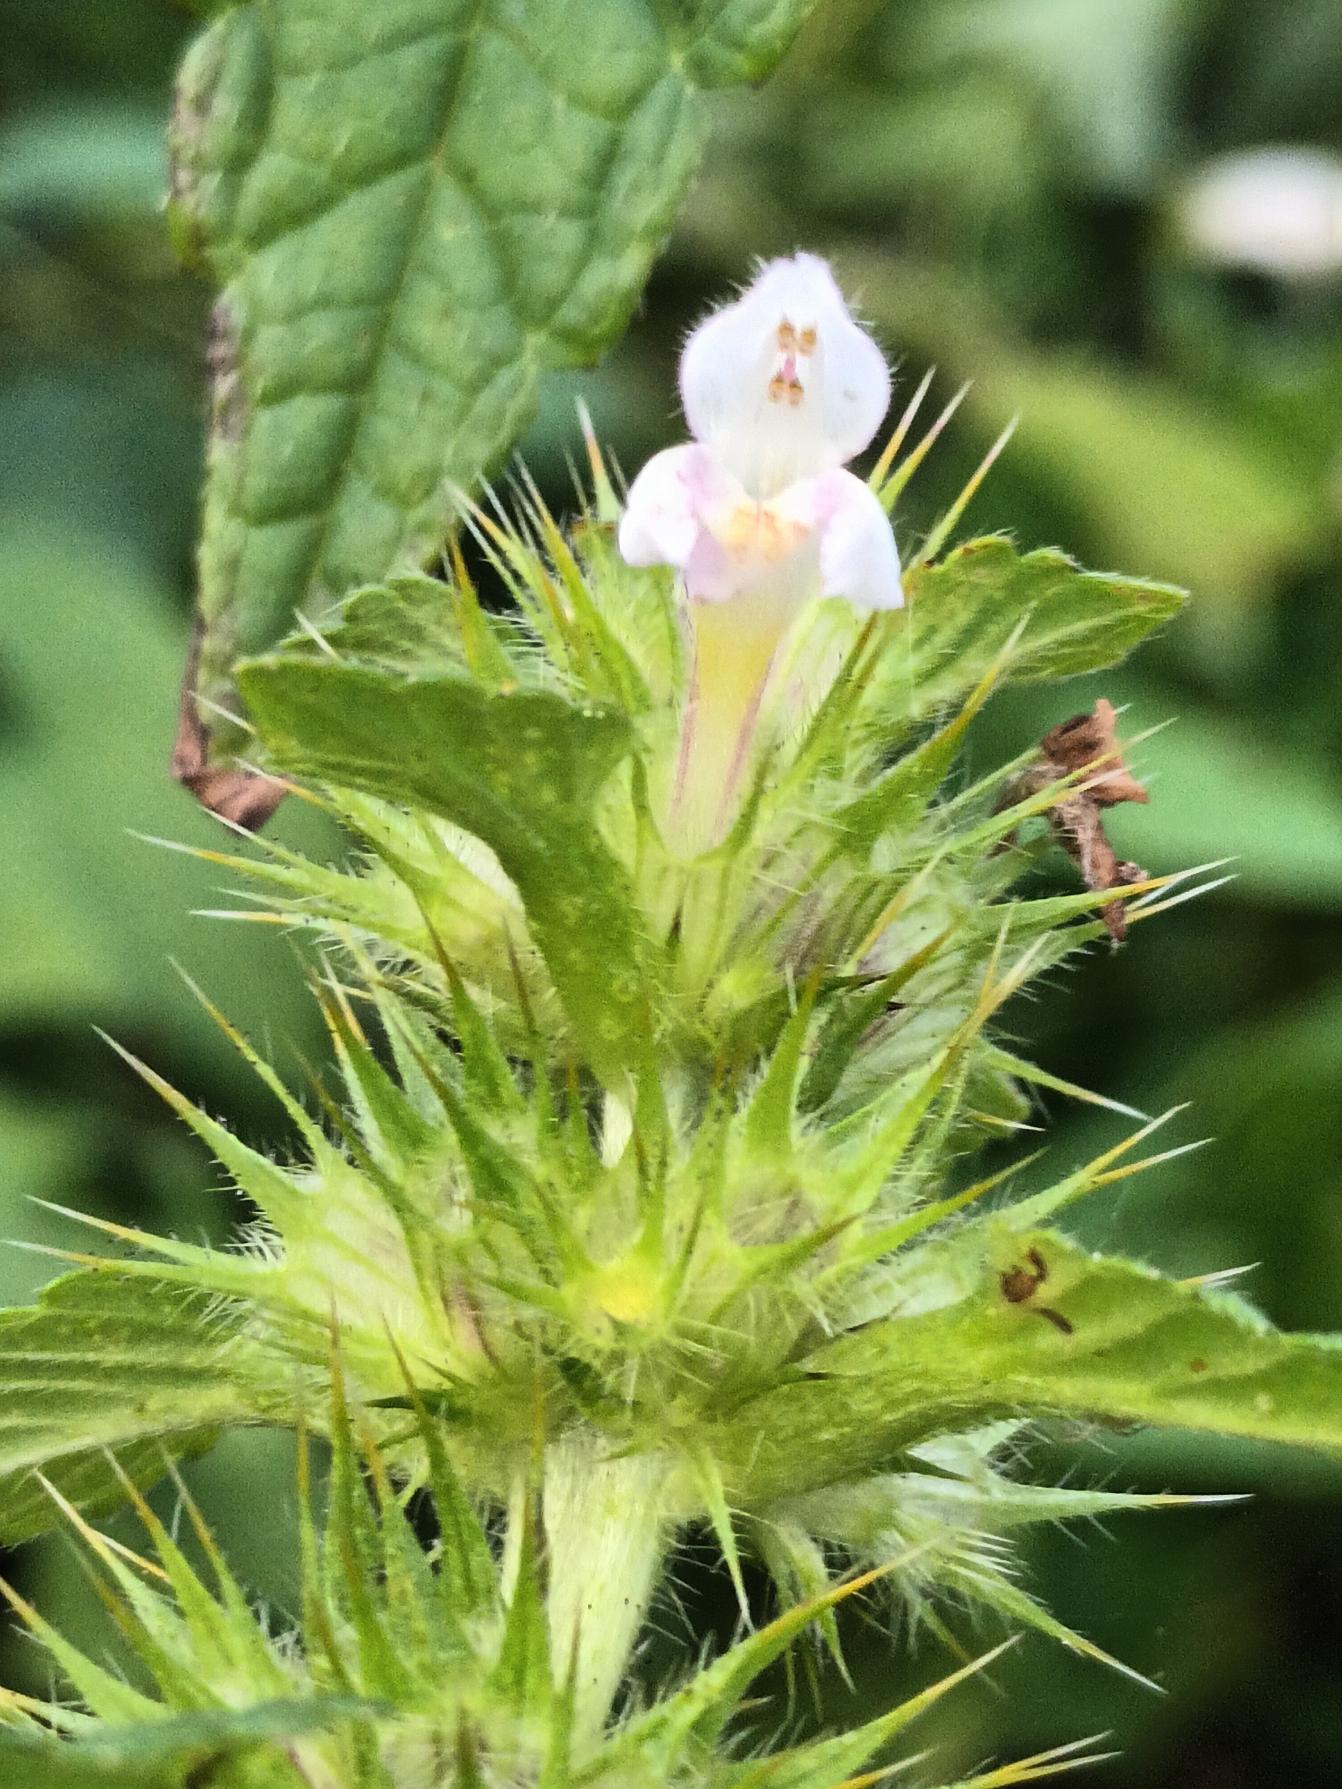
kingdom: Plantae
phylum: Tracheophyta
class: Magnoliopsida
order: Lamiales
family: Lamiaceae
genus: Galeopsis
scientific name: Galeopsis tetrahit
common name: Almindelig hanekro
